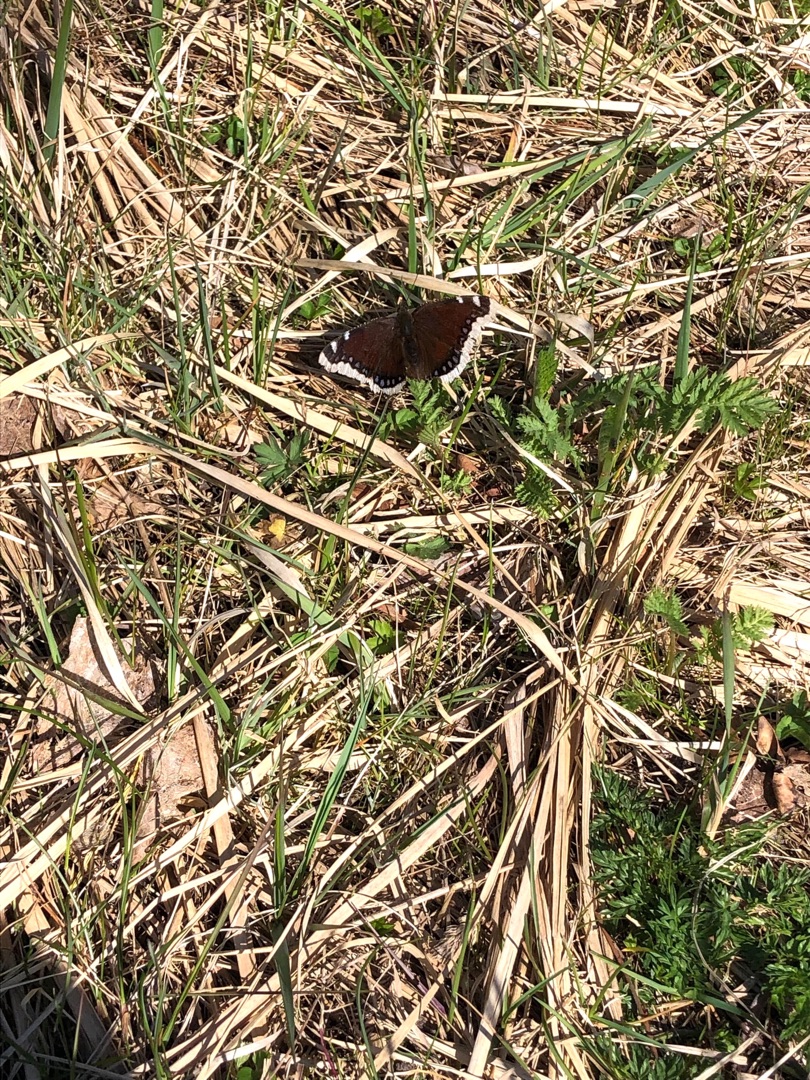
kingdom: Animalia
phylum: Arthropoda
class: Insecta
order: Lepidoptera
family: Nymphalidae
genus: Nymphalis
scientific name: Nymphalis antiopa
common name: Sørgekåbe
